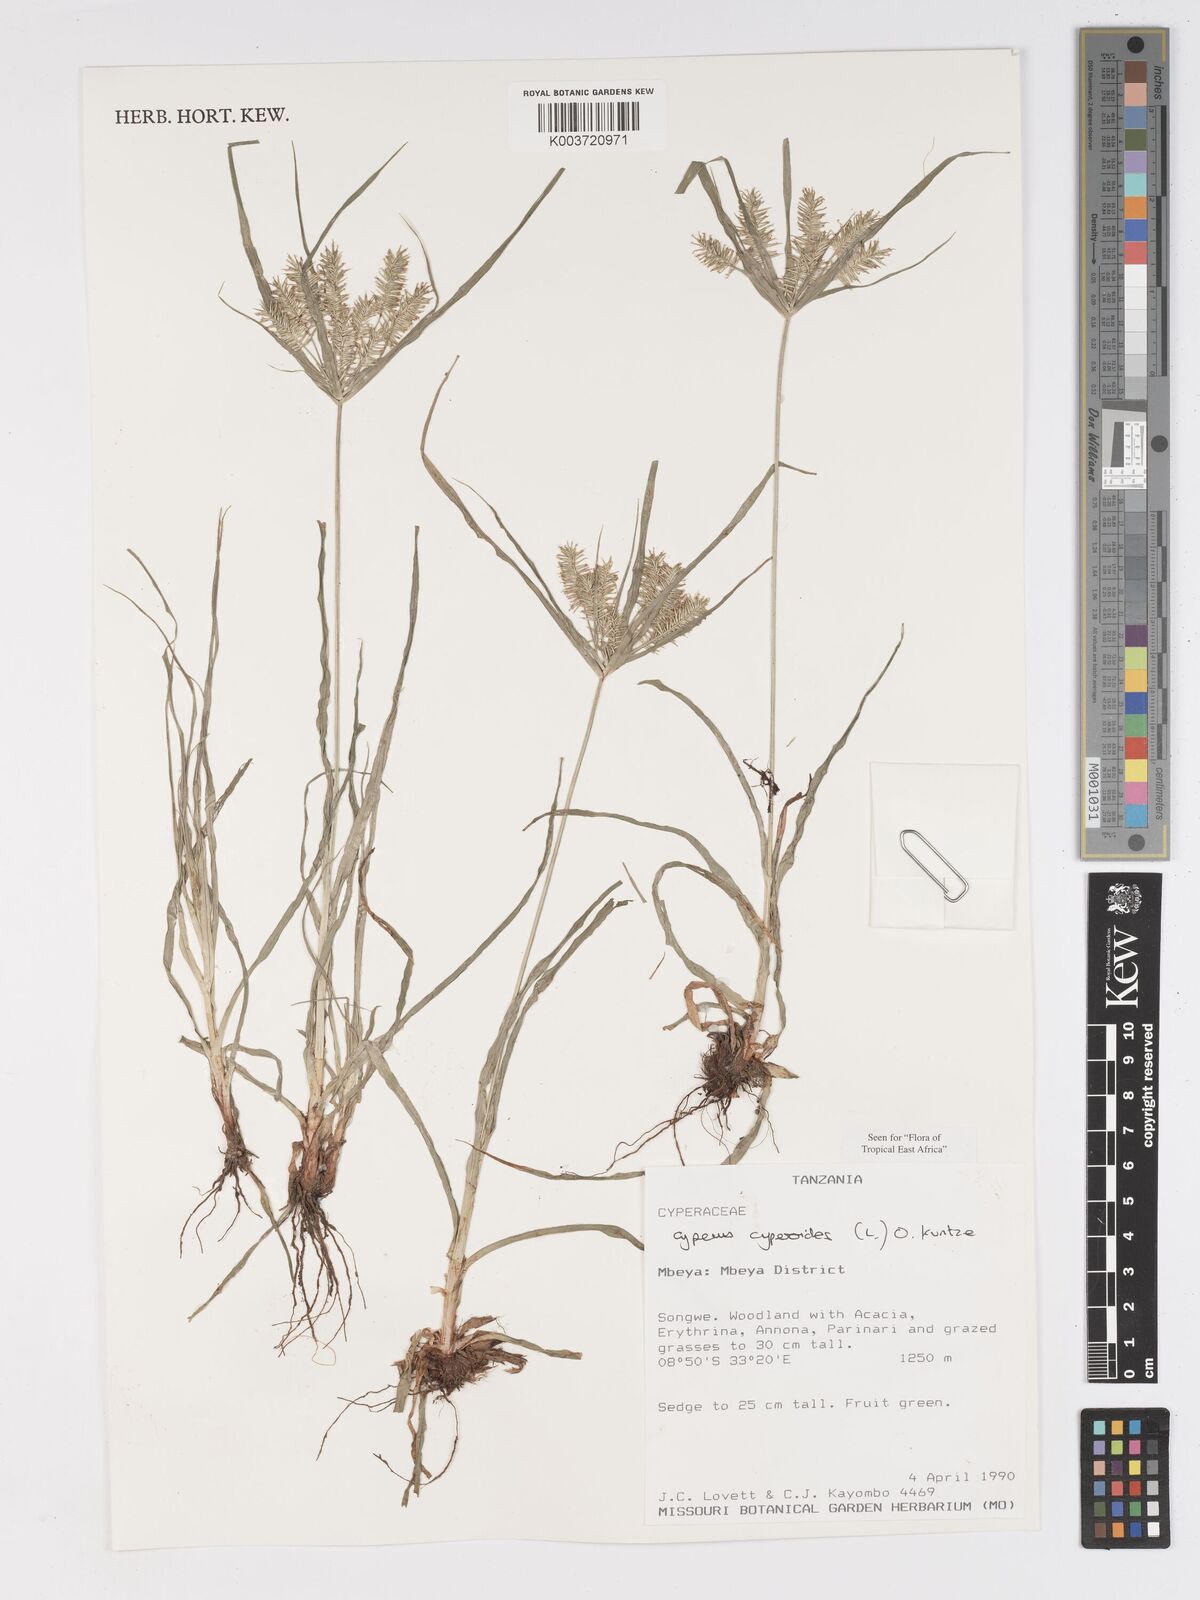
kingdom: Plantae
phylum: Tracheophyta
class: Liliopsida
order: Poales
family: Cyperaceae
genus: Cyperus
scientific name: Cyperus cyperoides
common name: Pacific island flat sedge
